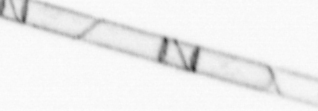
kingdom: Chromista
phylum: Ochrophyta
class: Bacillariophyceae
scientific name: Bacillariophyceae
